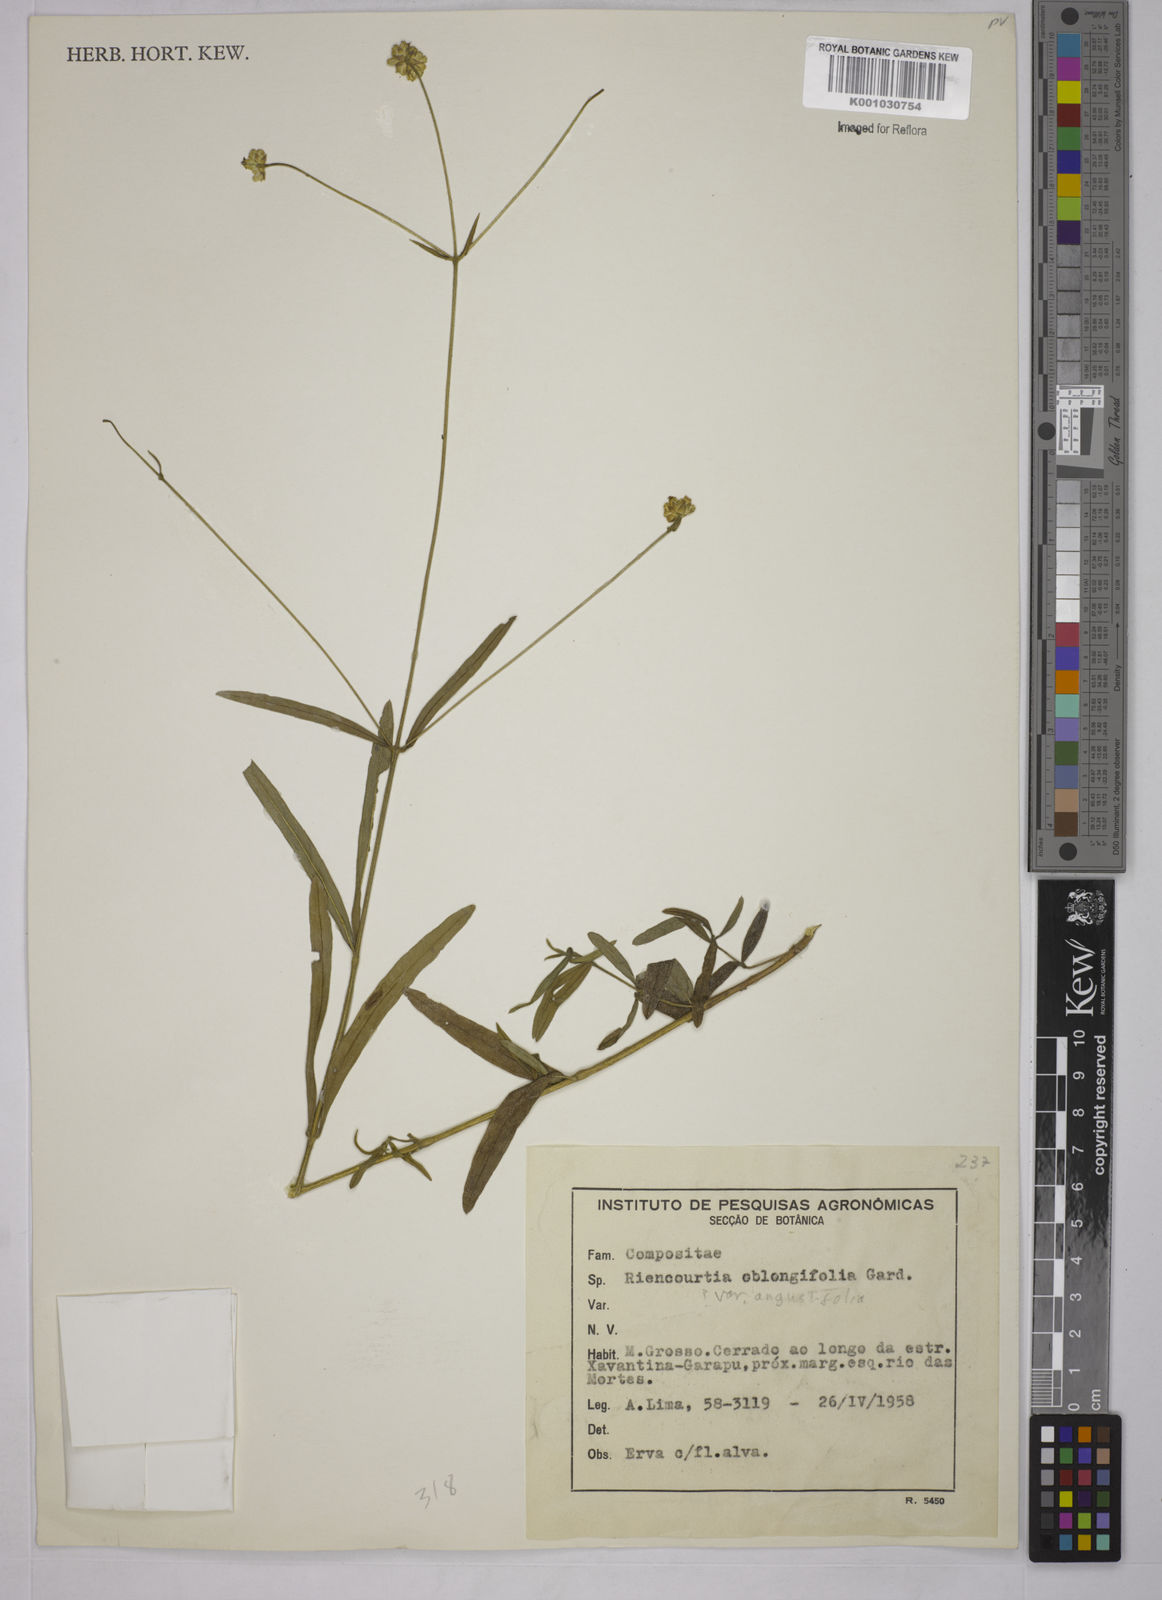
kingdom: Plantae
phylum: Tracheophyta
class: Magnoliopsida
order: Asterales
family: Asteraceae
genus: Riencourtia
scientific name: Riencourtia oblongifolia
